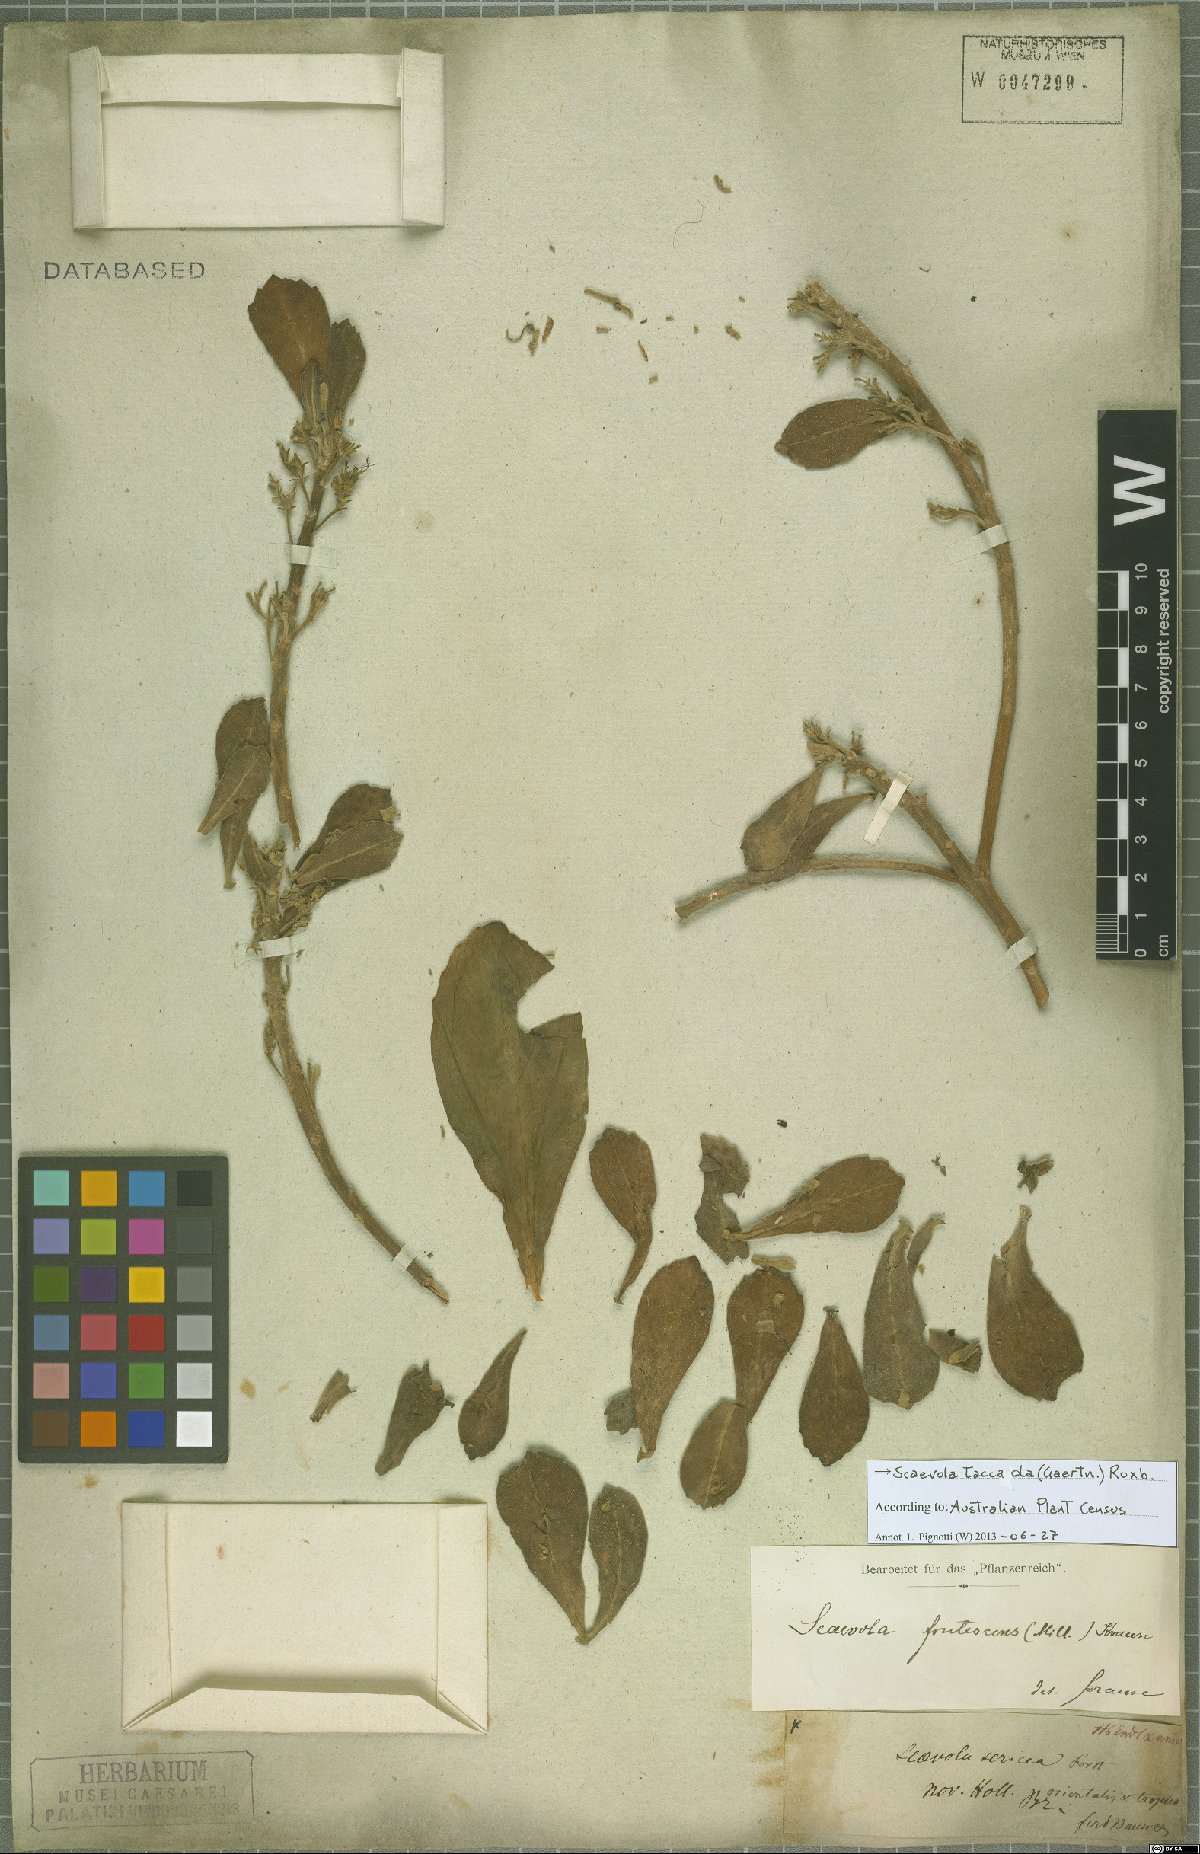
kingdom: Plantae
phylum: Tracheophyta
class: Magnoliopsida
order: Asterales
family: Goodeniaceae
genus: Scaevola
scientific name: Scaevola taccada
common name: Sea lettucetree
